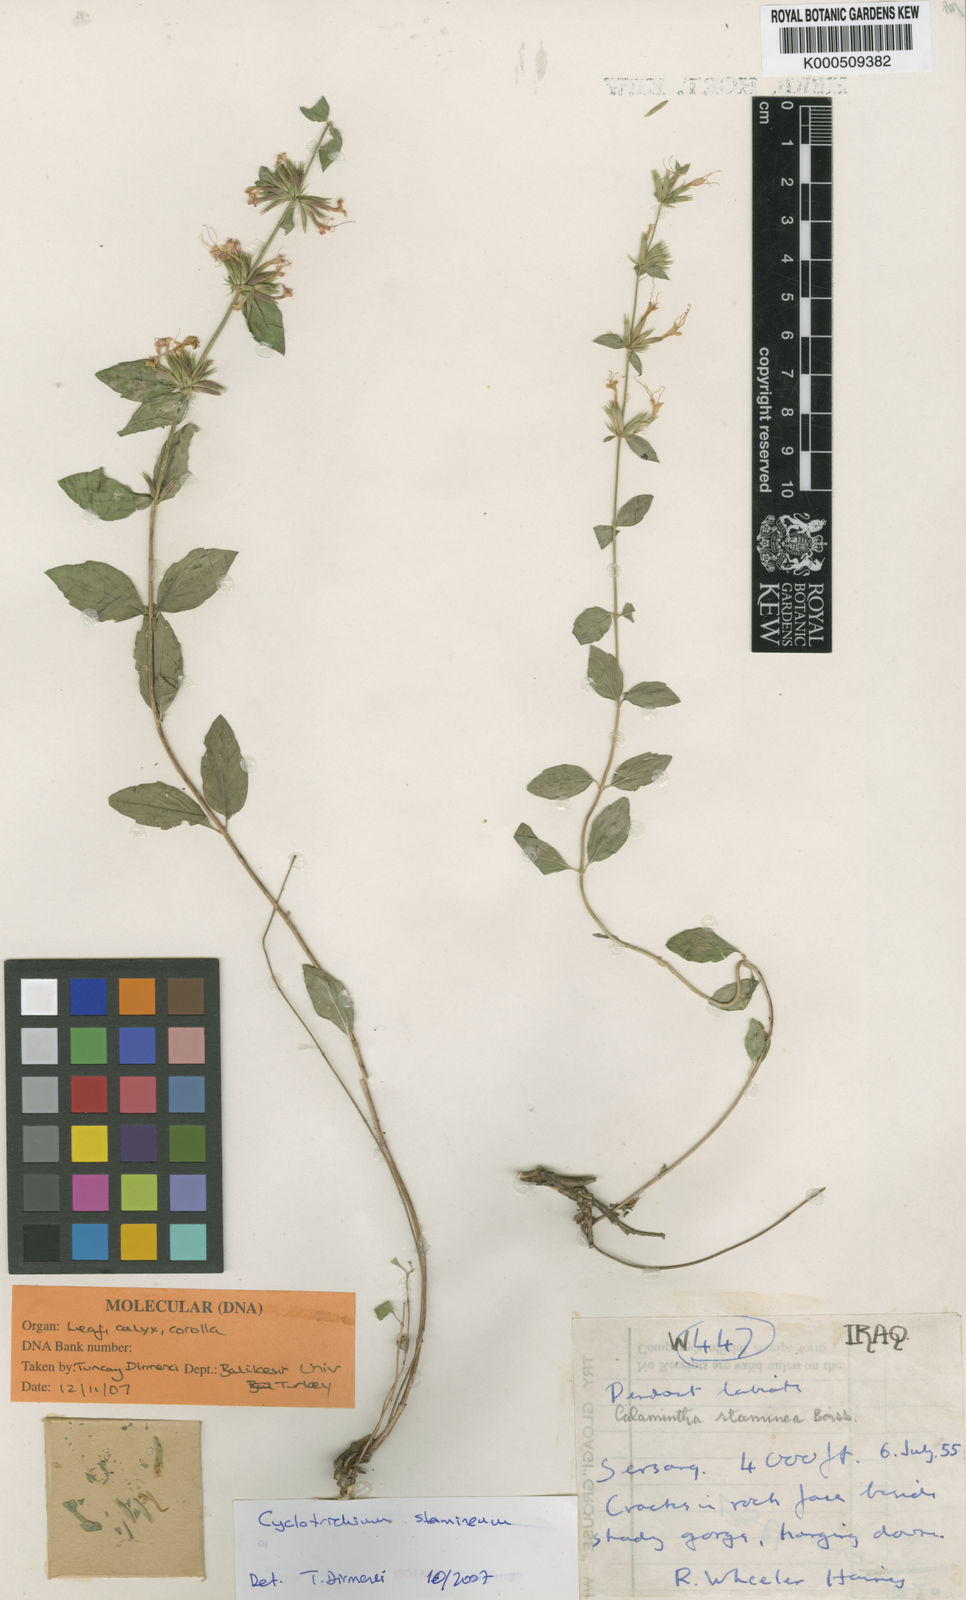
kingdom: Plantae
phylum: Tracheophyta
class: Magnoliopsida
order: Lamiales
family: Lamiaceae
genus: Cyclotrichium
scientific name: Cyclotrichium stamineum
